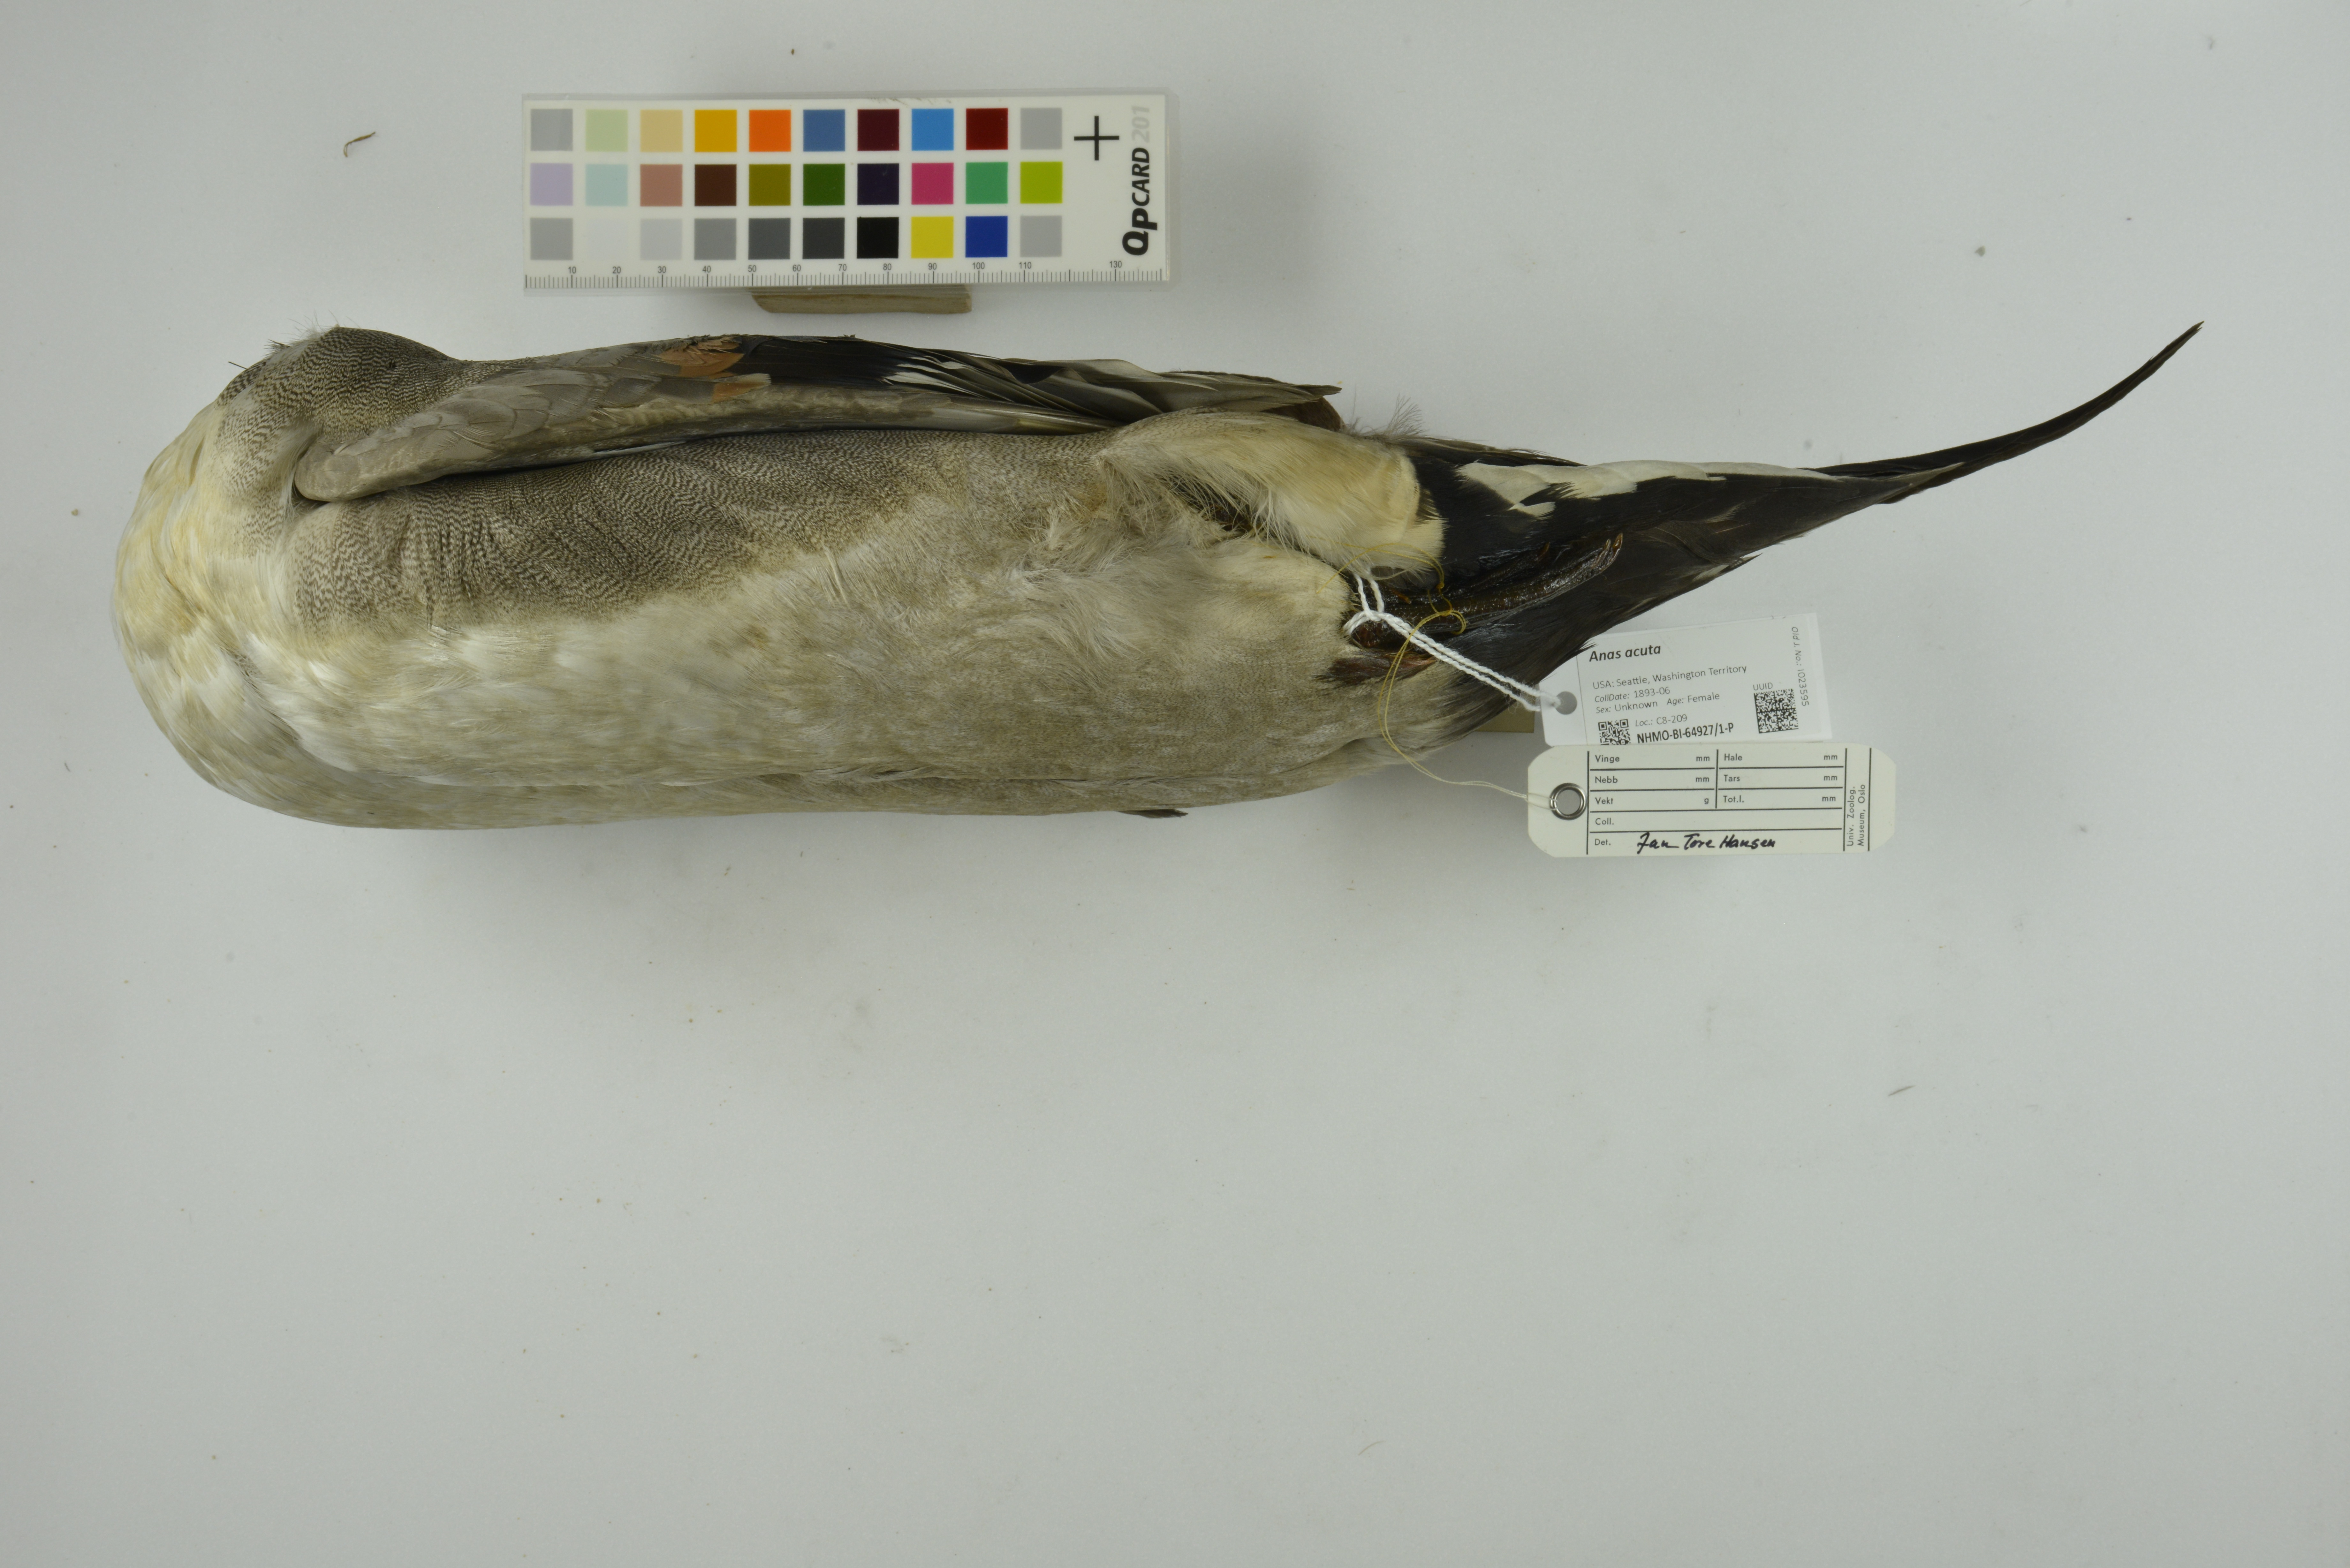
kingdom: Animalia
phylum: Chordata
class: Aves
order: Anseriformes
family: Anatidae
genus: Anas
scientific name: Anas acuta
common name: Northern pintail
